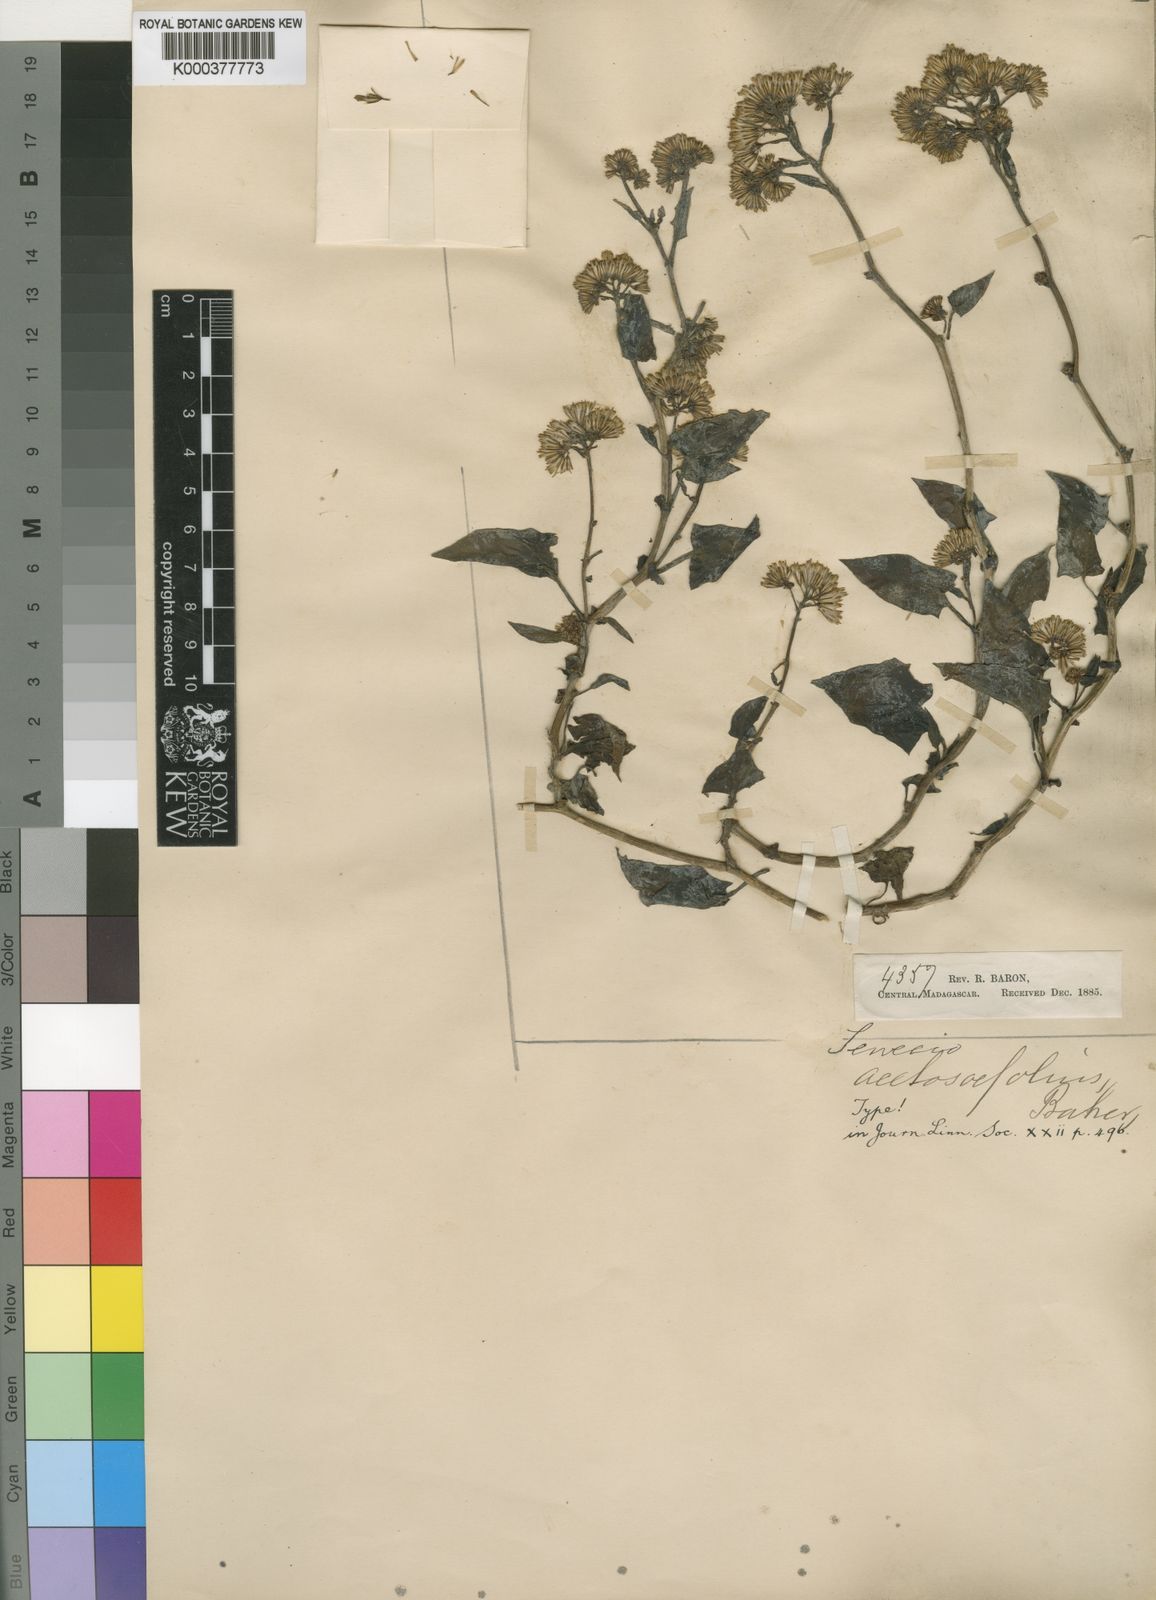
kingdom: Plantae
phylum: Tracheophyta
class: Magnoliopsida
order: Asterales
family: Asteraceae
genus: Senecio
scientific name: Senecio acetosifolius
